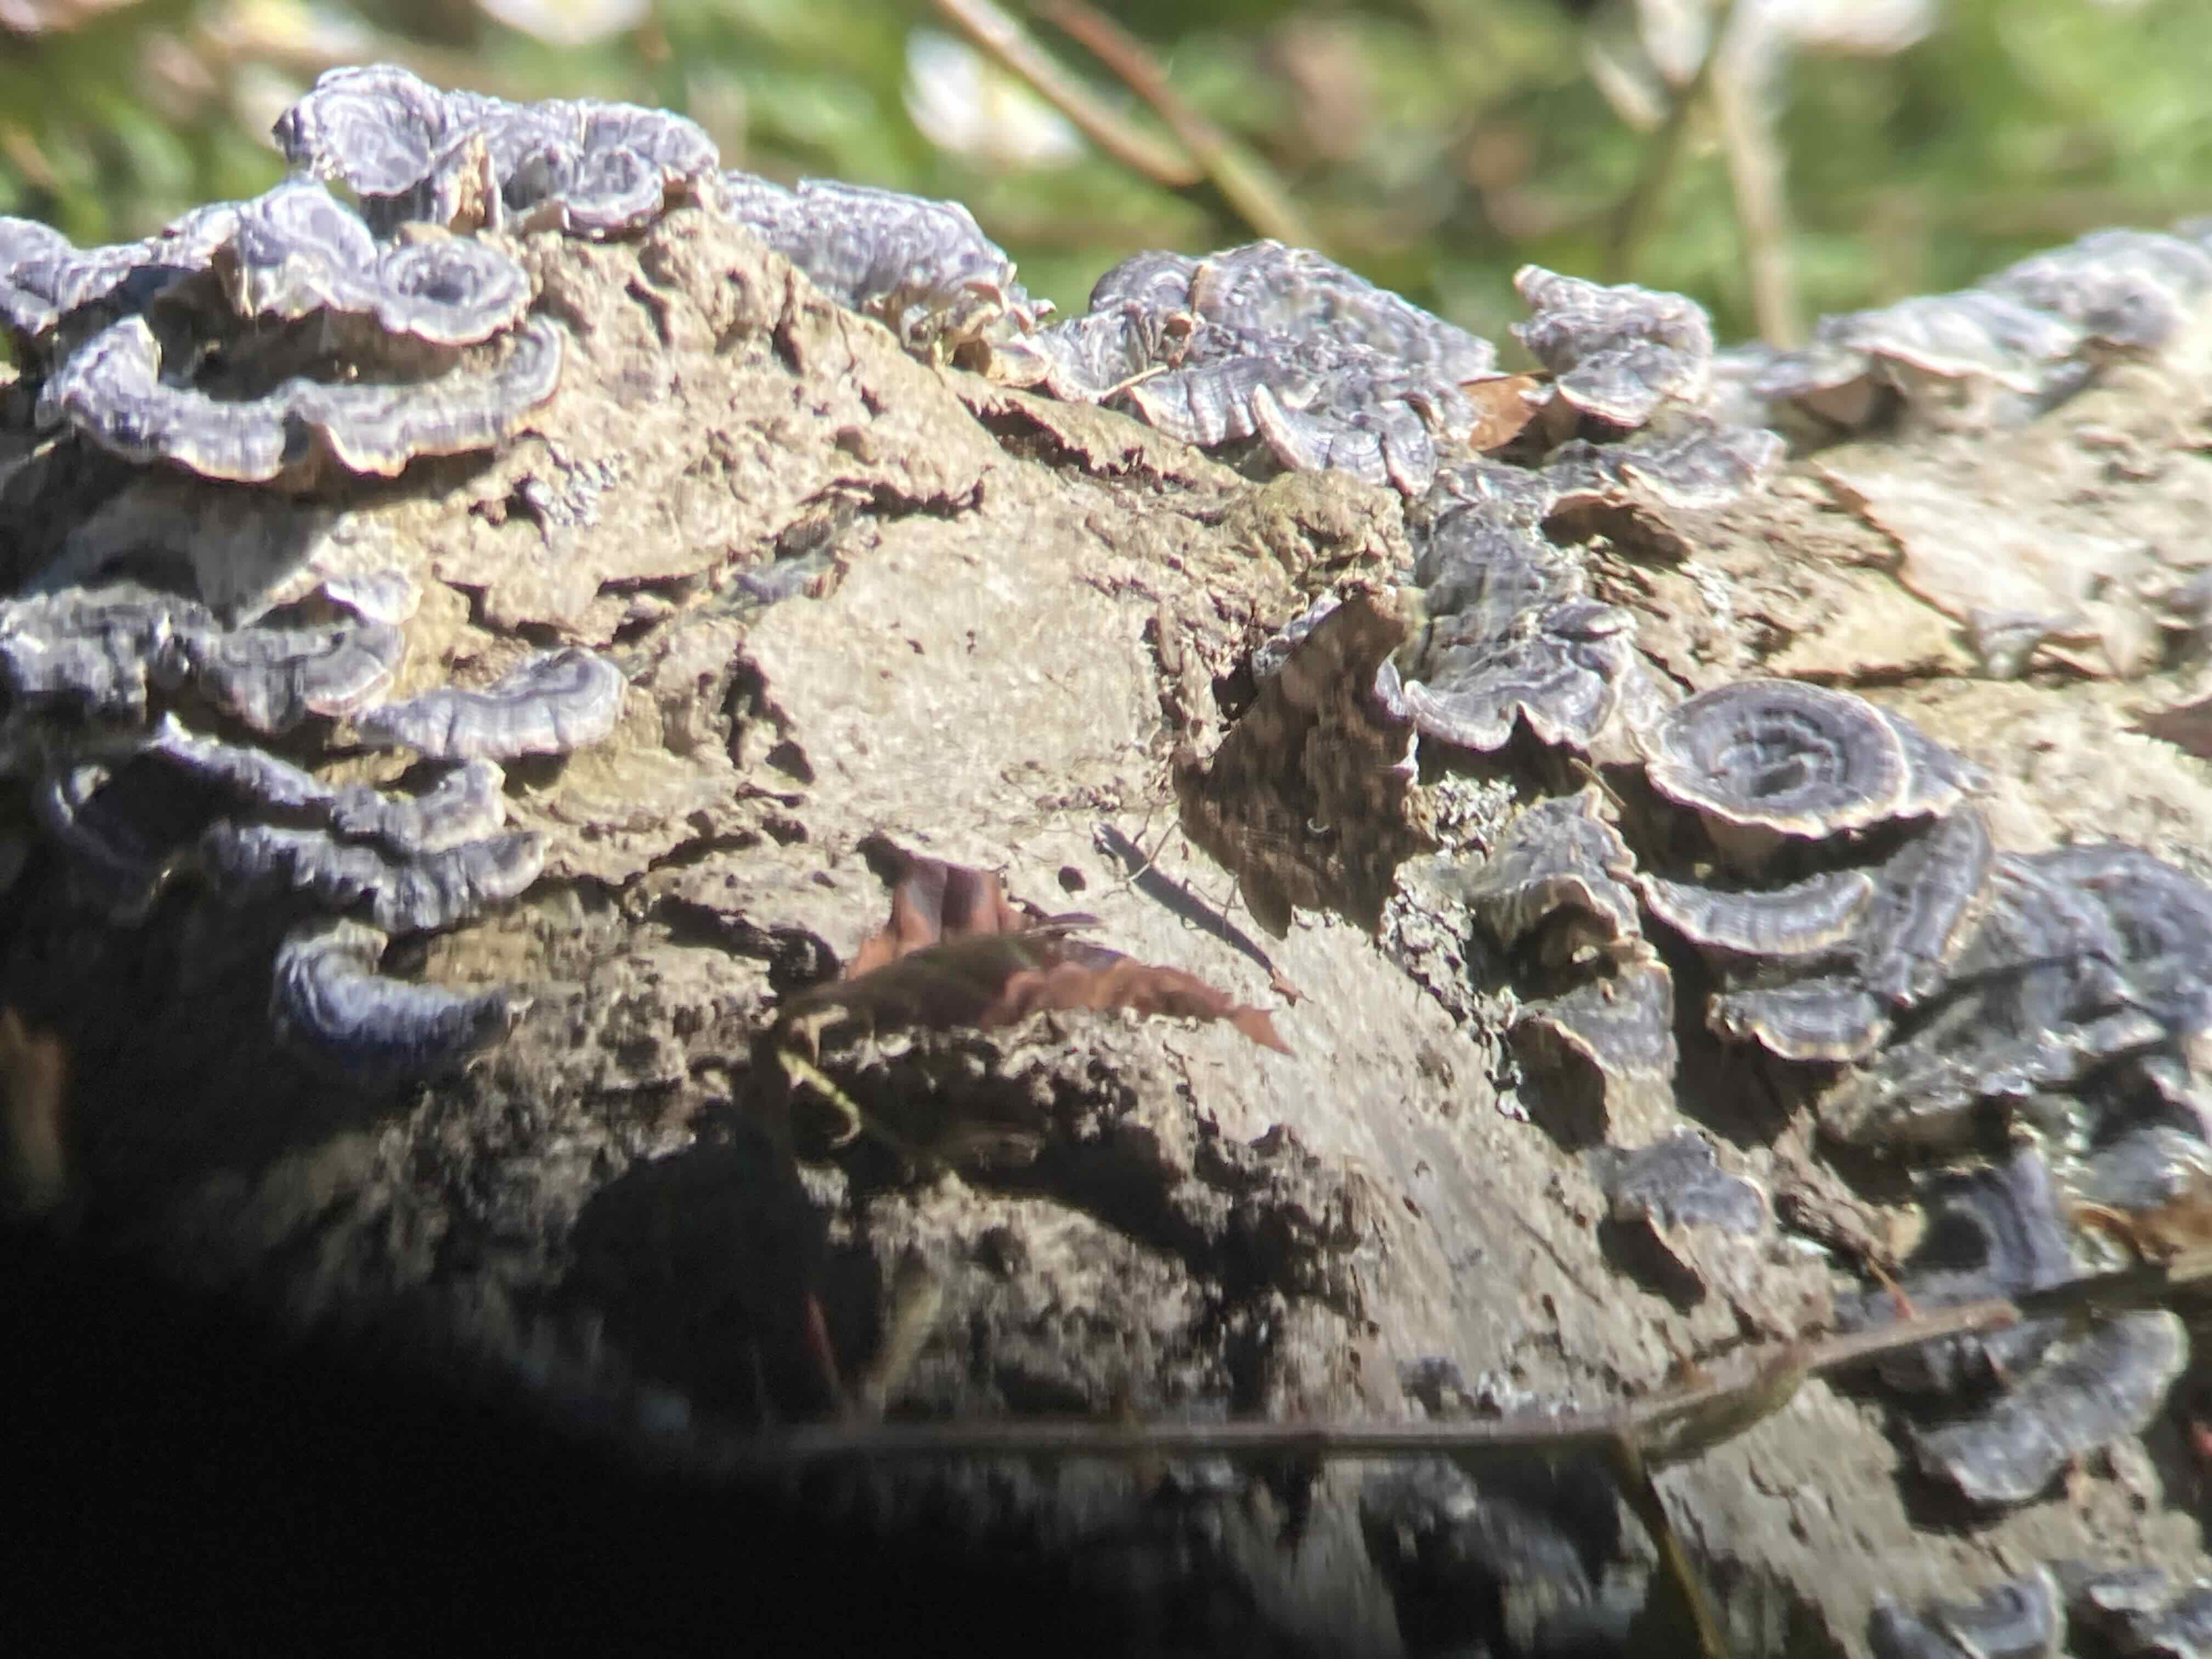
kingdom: Fungi
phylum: Basidiomycota
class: Agaricomycetes
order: Polyporales
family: Polyporaceae
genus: Trametes
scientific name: Trametes versicolor
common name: broget læderporesvamp
